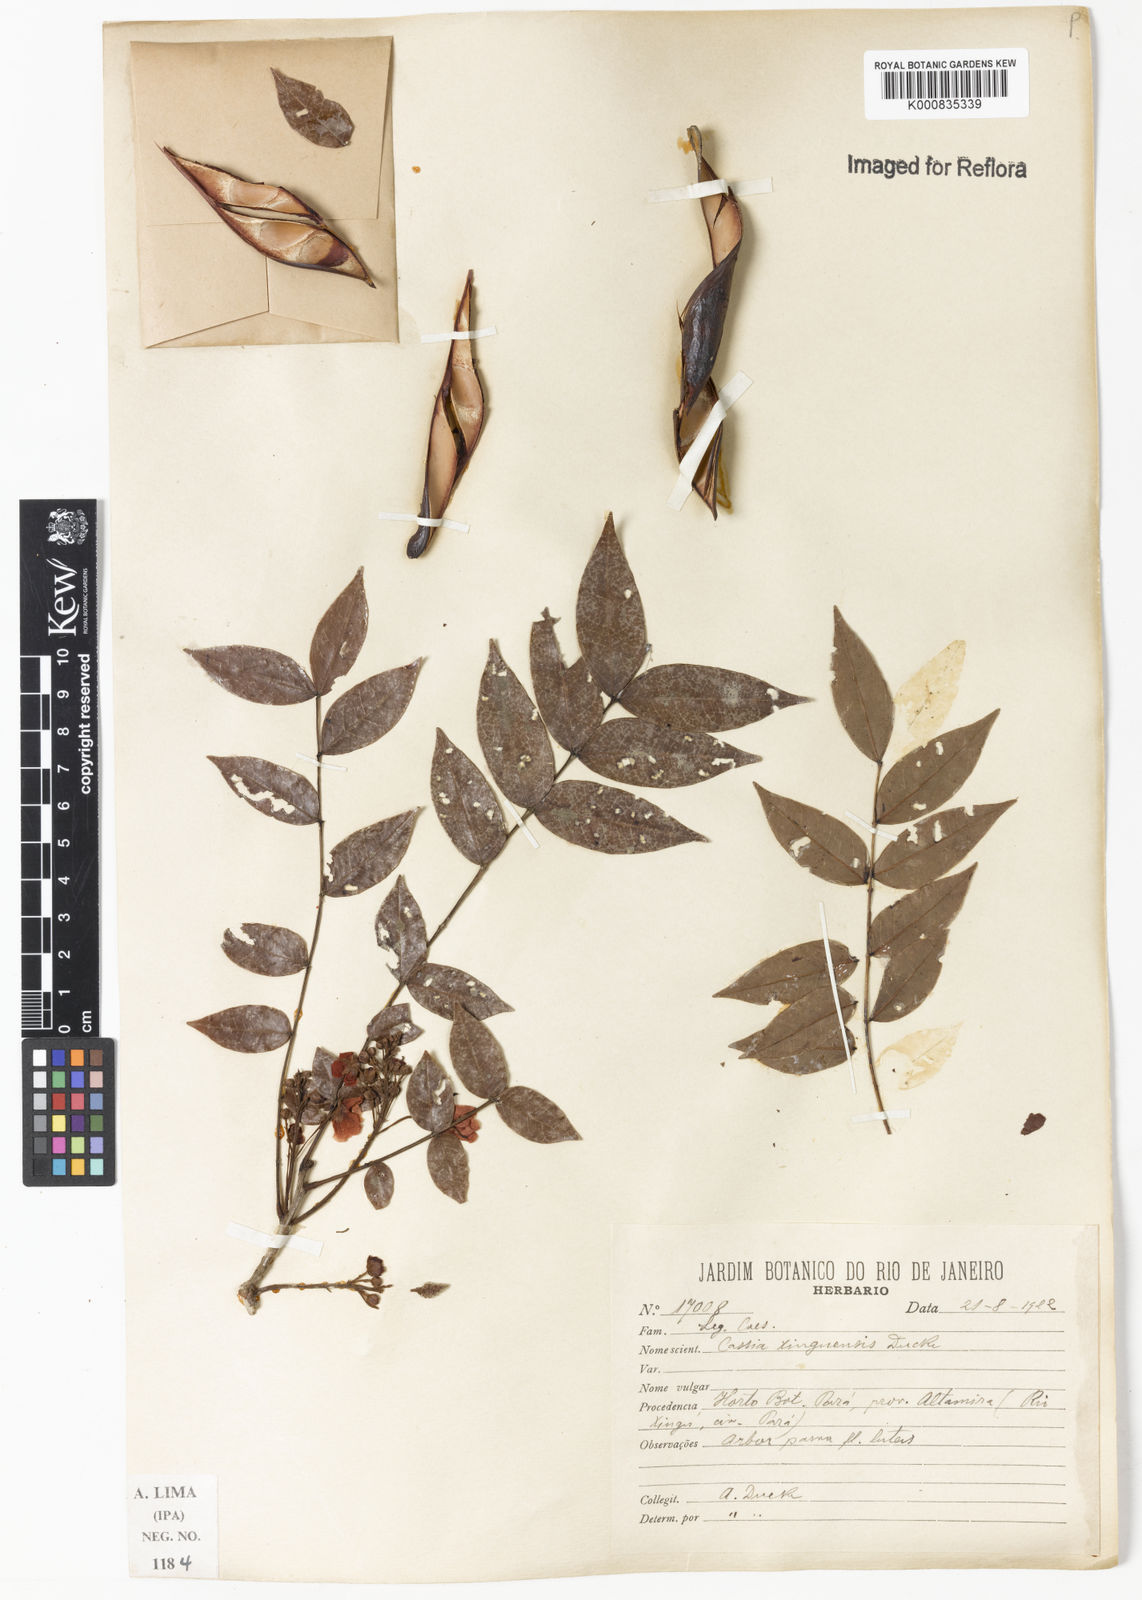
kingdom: Plantae
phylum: Tracheophyta
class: Magnoliopsida
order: Fabales
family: Fabaceae
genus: Chamaecrista
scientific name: Chamaecrista xinguensis
